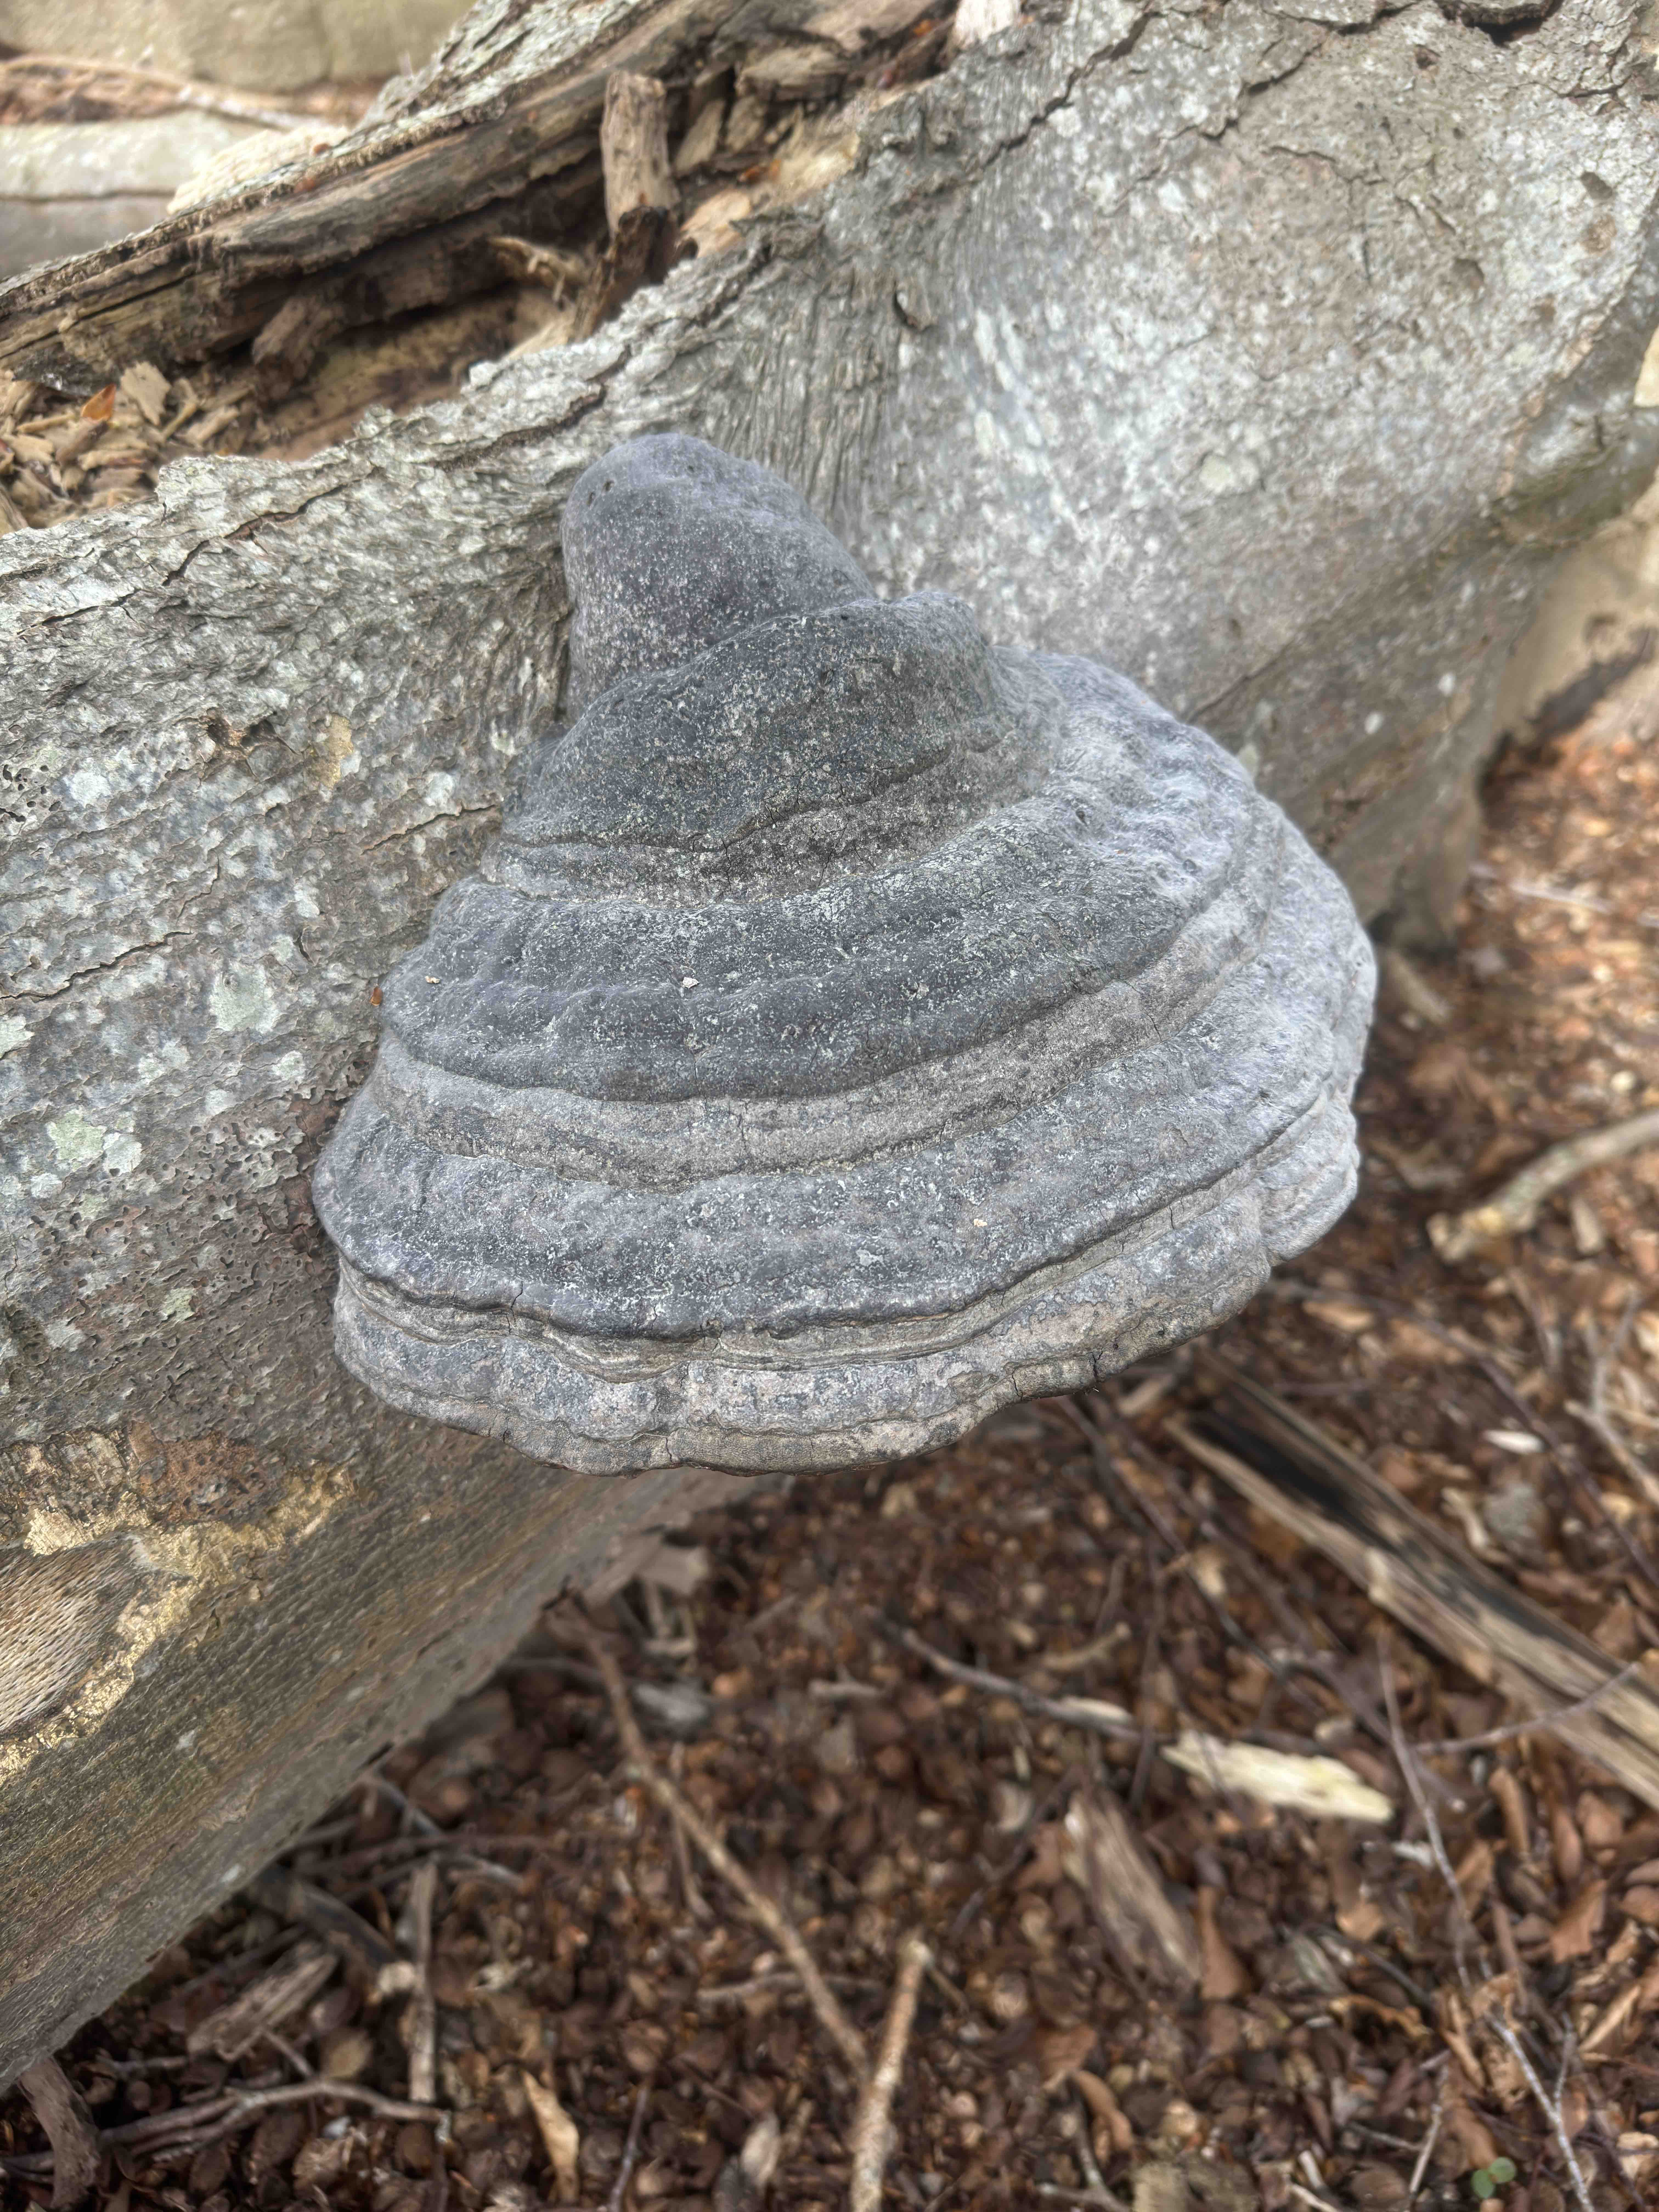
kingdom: Fungi
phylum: Basidiomycota
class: Agaricomycetes
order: Polyporales
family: Polyporaceae
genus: Fomes
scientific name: Fomes fomentarius
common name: tøndersvamp
